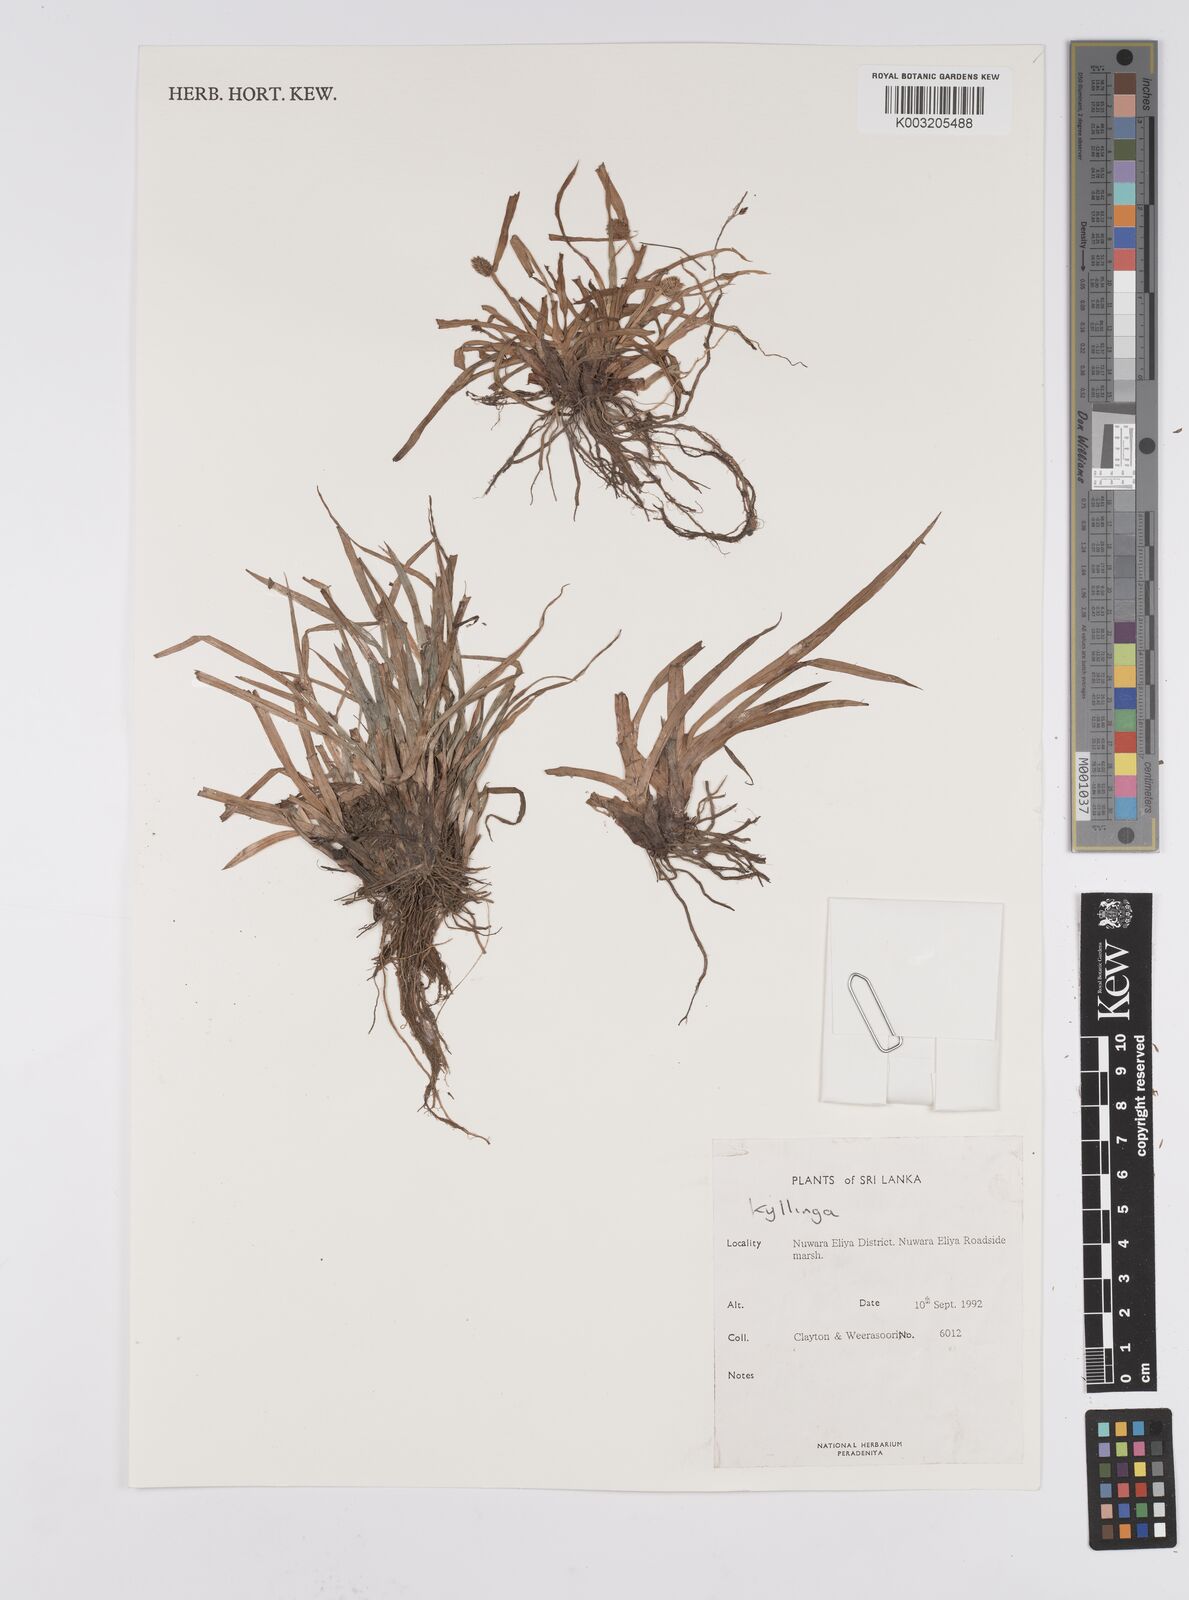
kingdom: Plantae
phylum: Tracheophyta
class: Liliopsida
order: Poales
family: Cyperaceae
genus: Cyperus
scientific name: Cyperus
